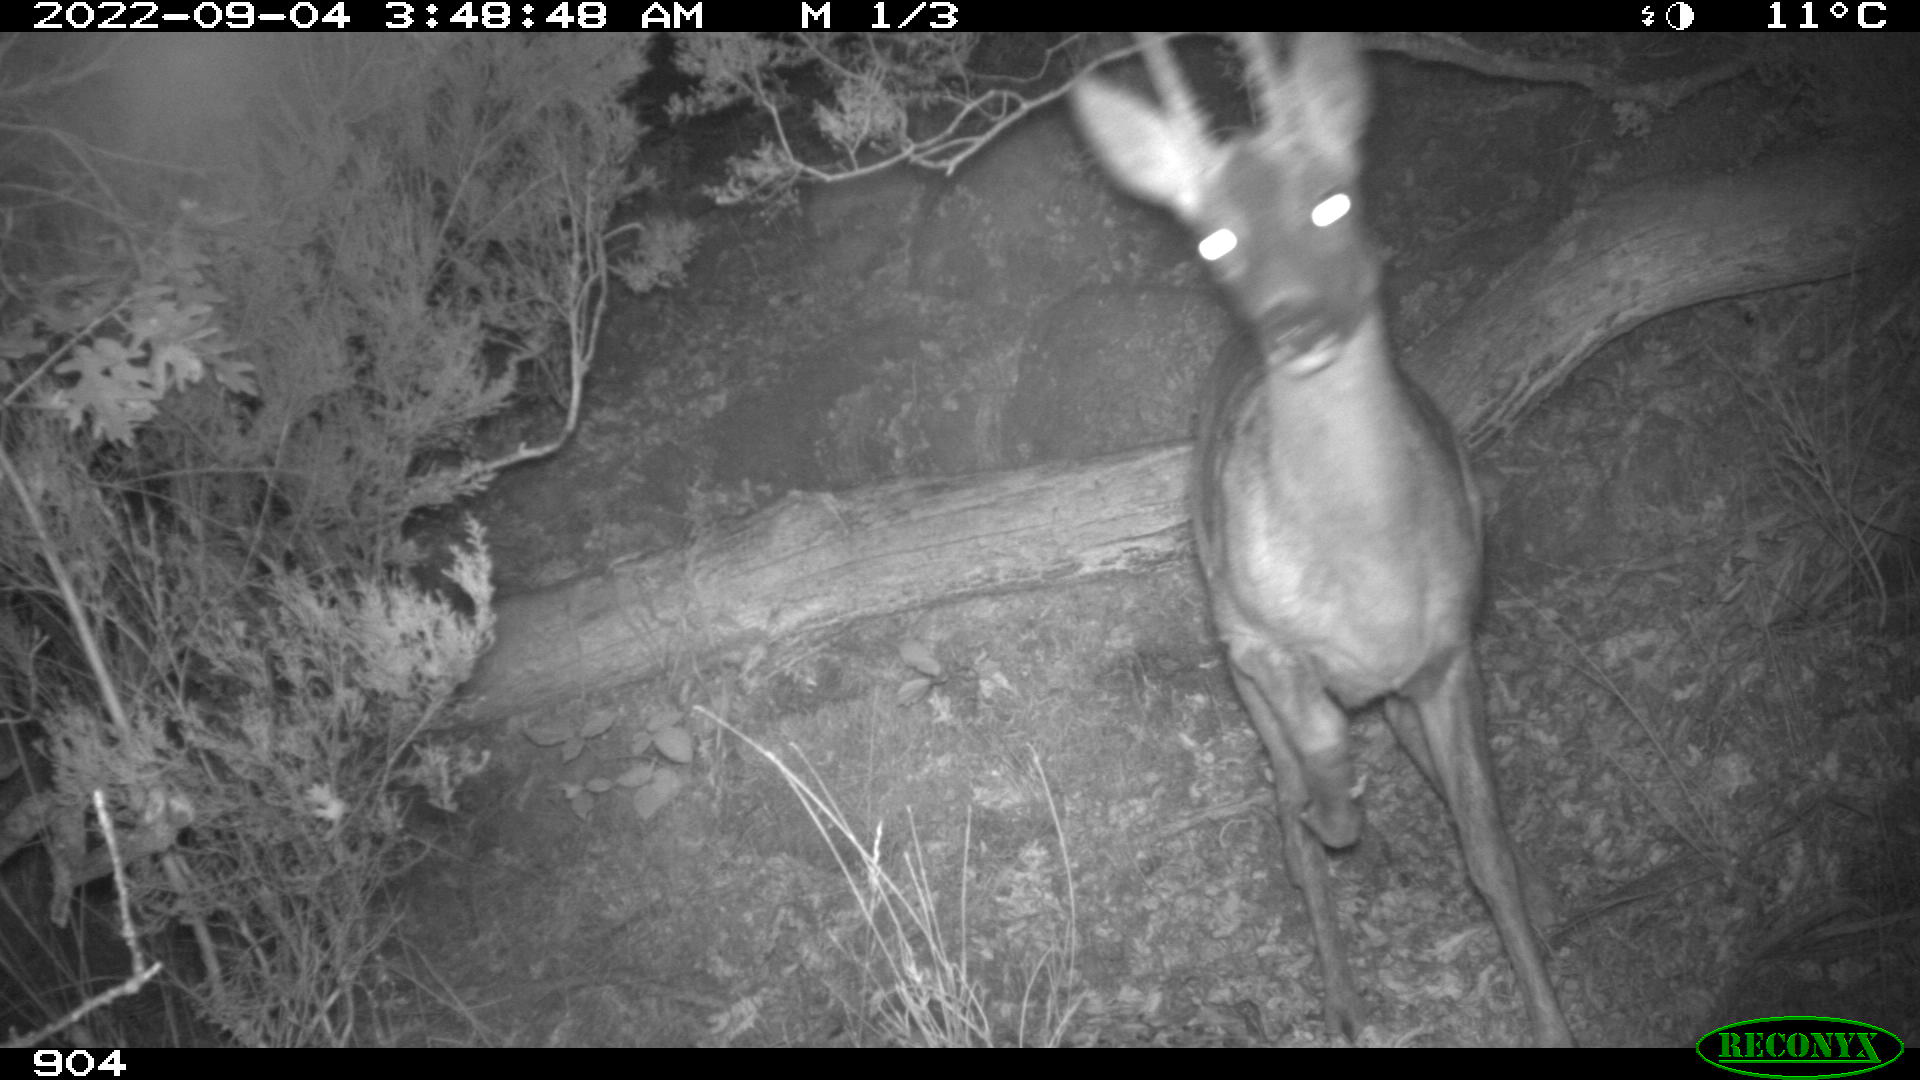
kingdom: Animalia
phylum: Chordata
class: Mammalia
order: Artiodactyla
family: Cervidae
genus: Capreolus
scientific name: Capreolus capreolus
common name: Western roe deer
